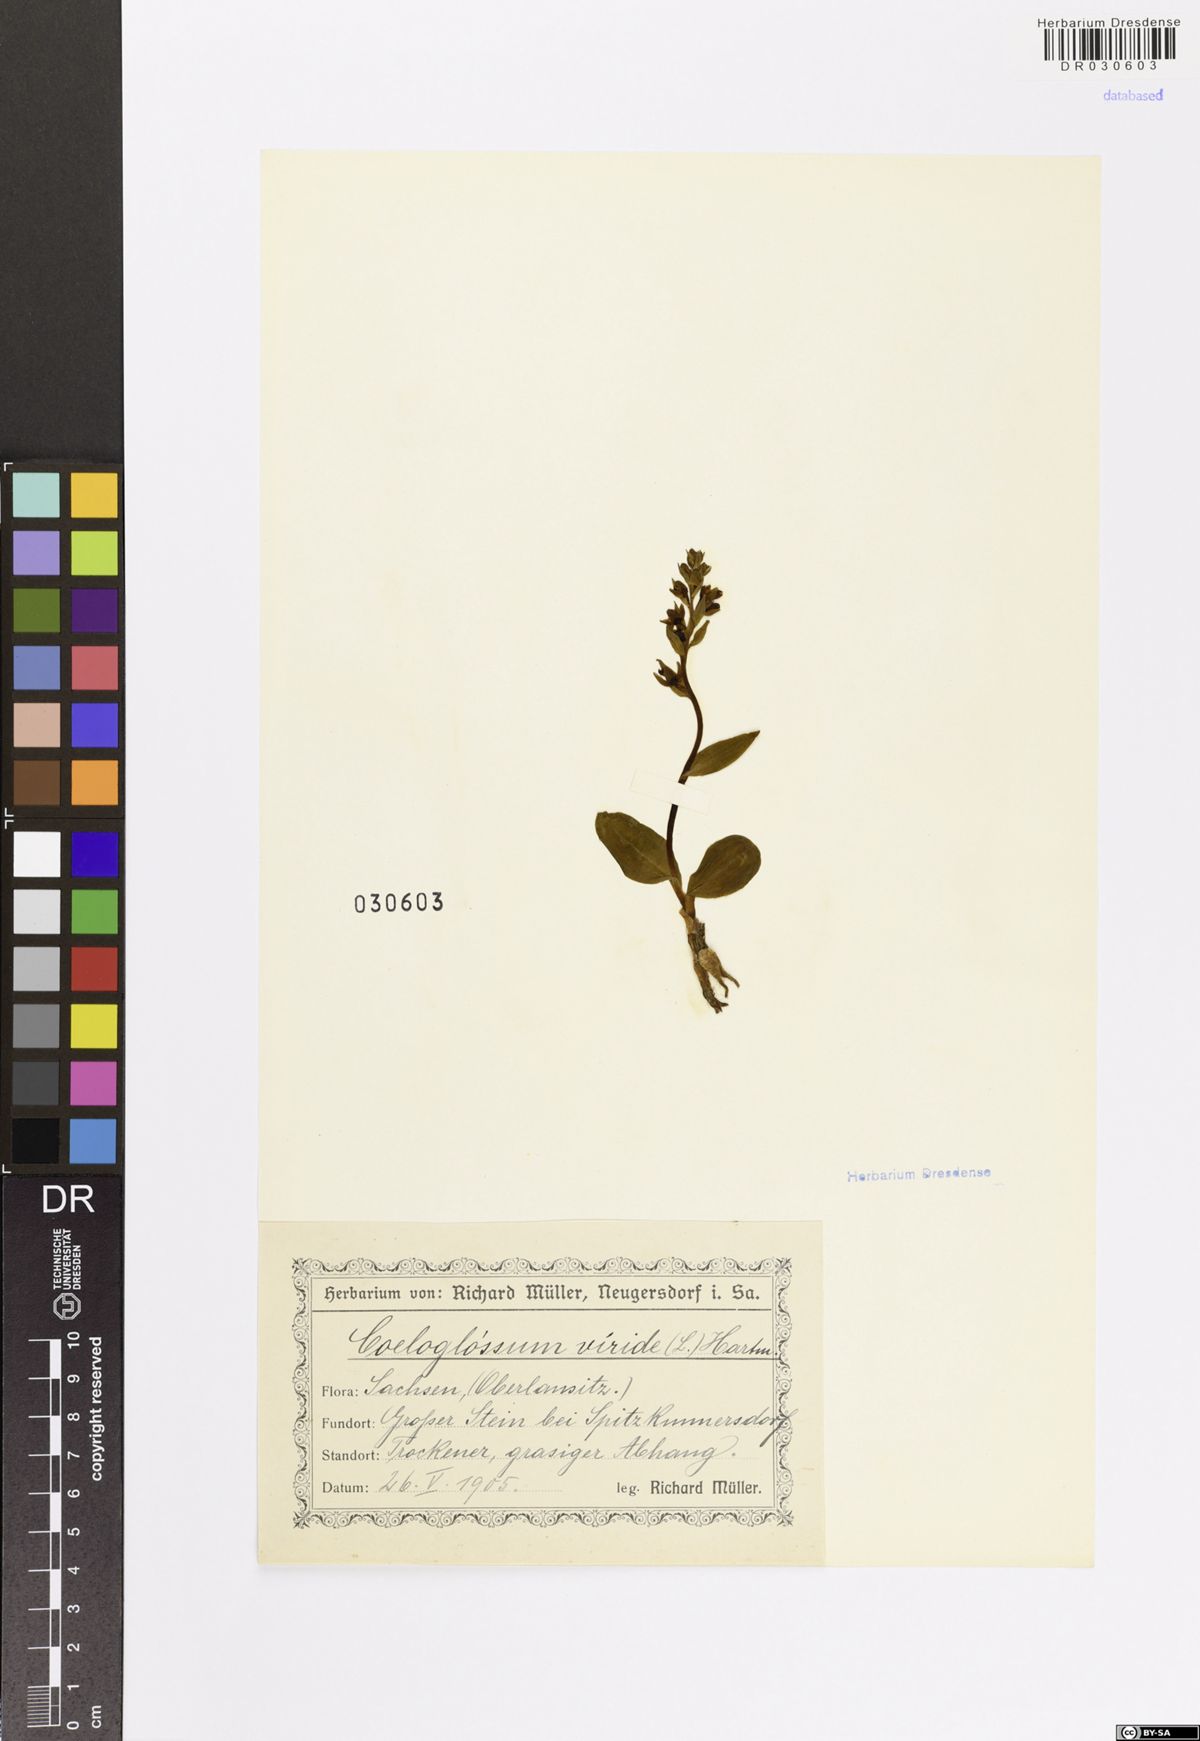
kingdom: Plantae
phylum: Tracheophyta
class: Liliopsida
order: Asparagales
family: Orchidaceae
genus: Dactylorhiza
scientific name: Dactylorhiza viridis
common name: Longbract frog orchid
